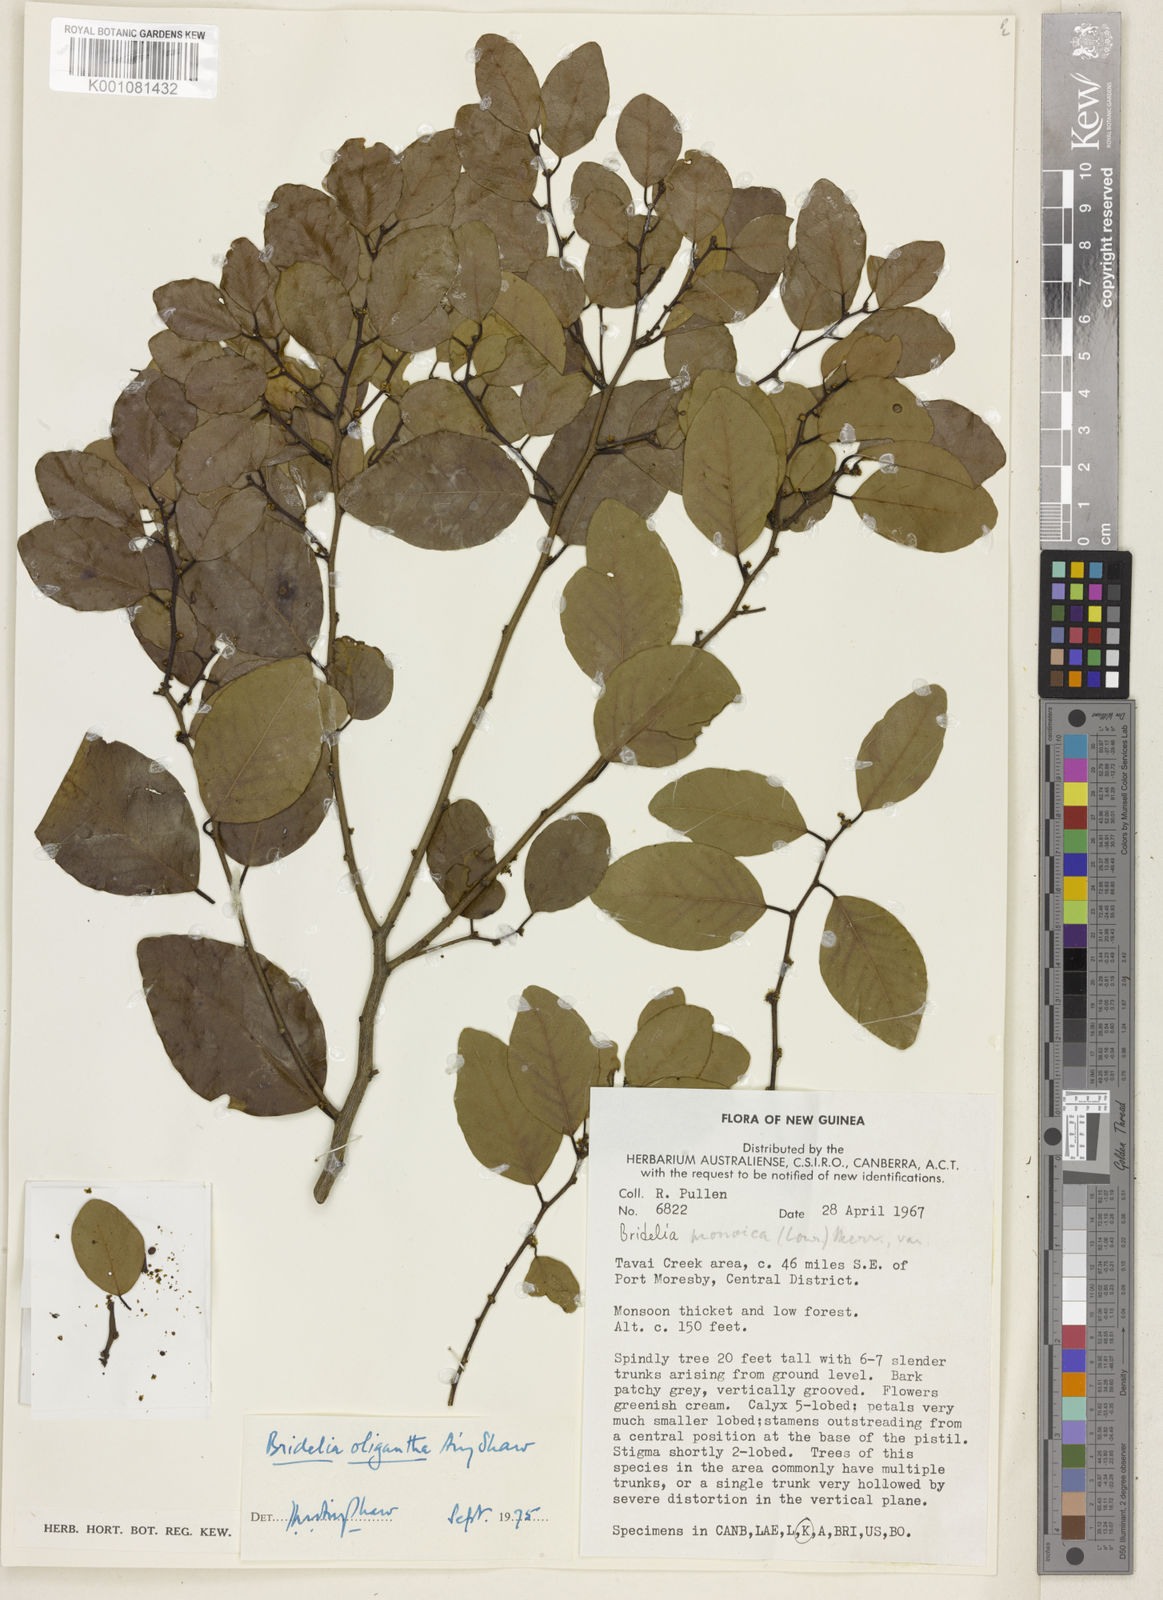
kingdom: Plantae
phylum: Tracheophyta
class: Magnoliopsida
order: Malpighiales
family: Phyllanthaceae
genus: Bridelia
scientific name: Bridelia oligantha
